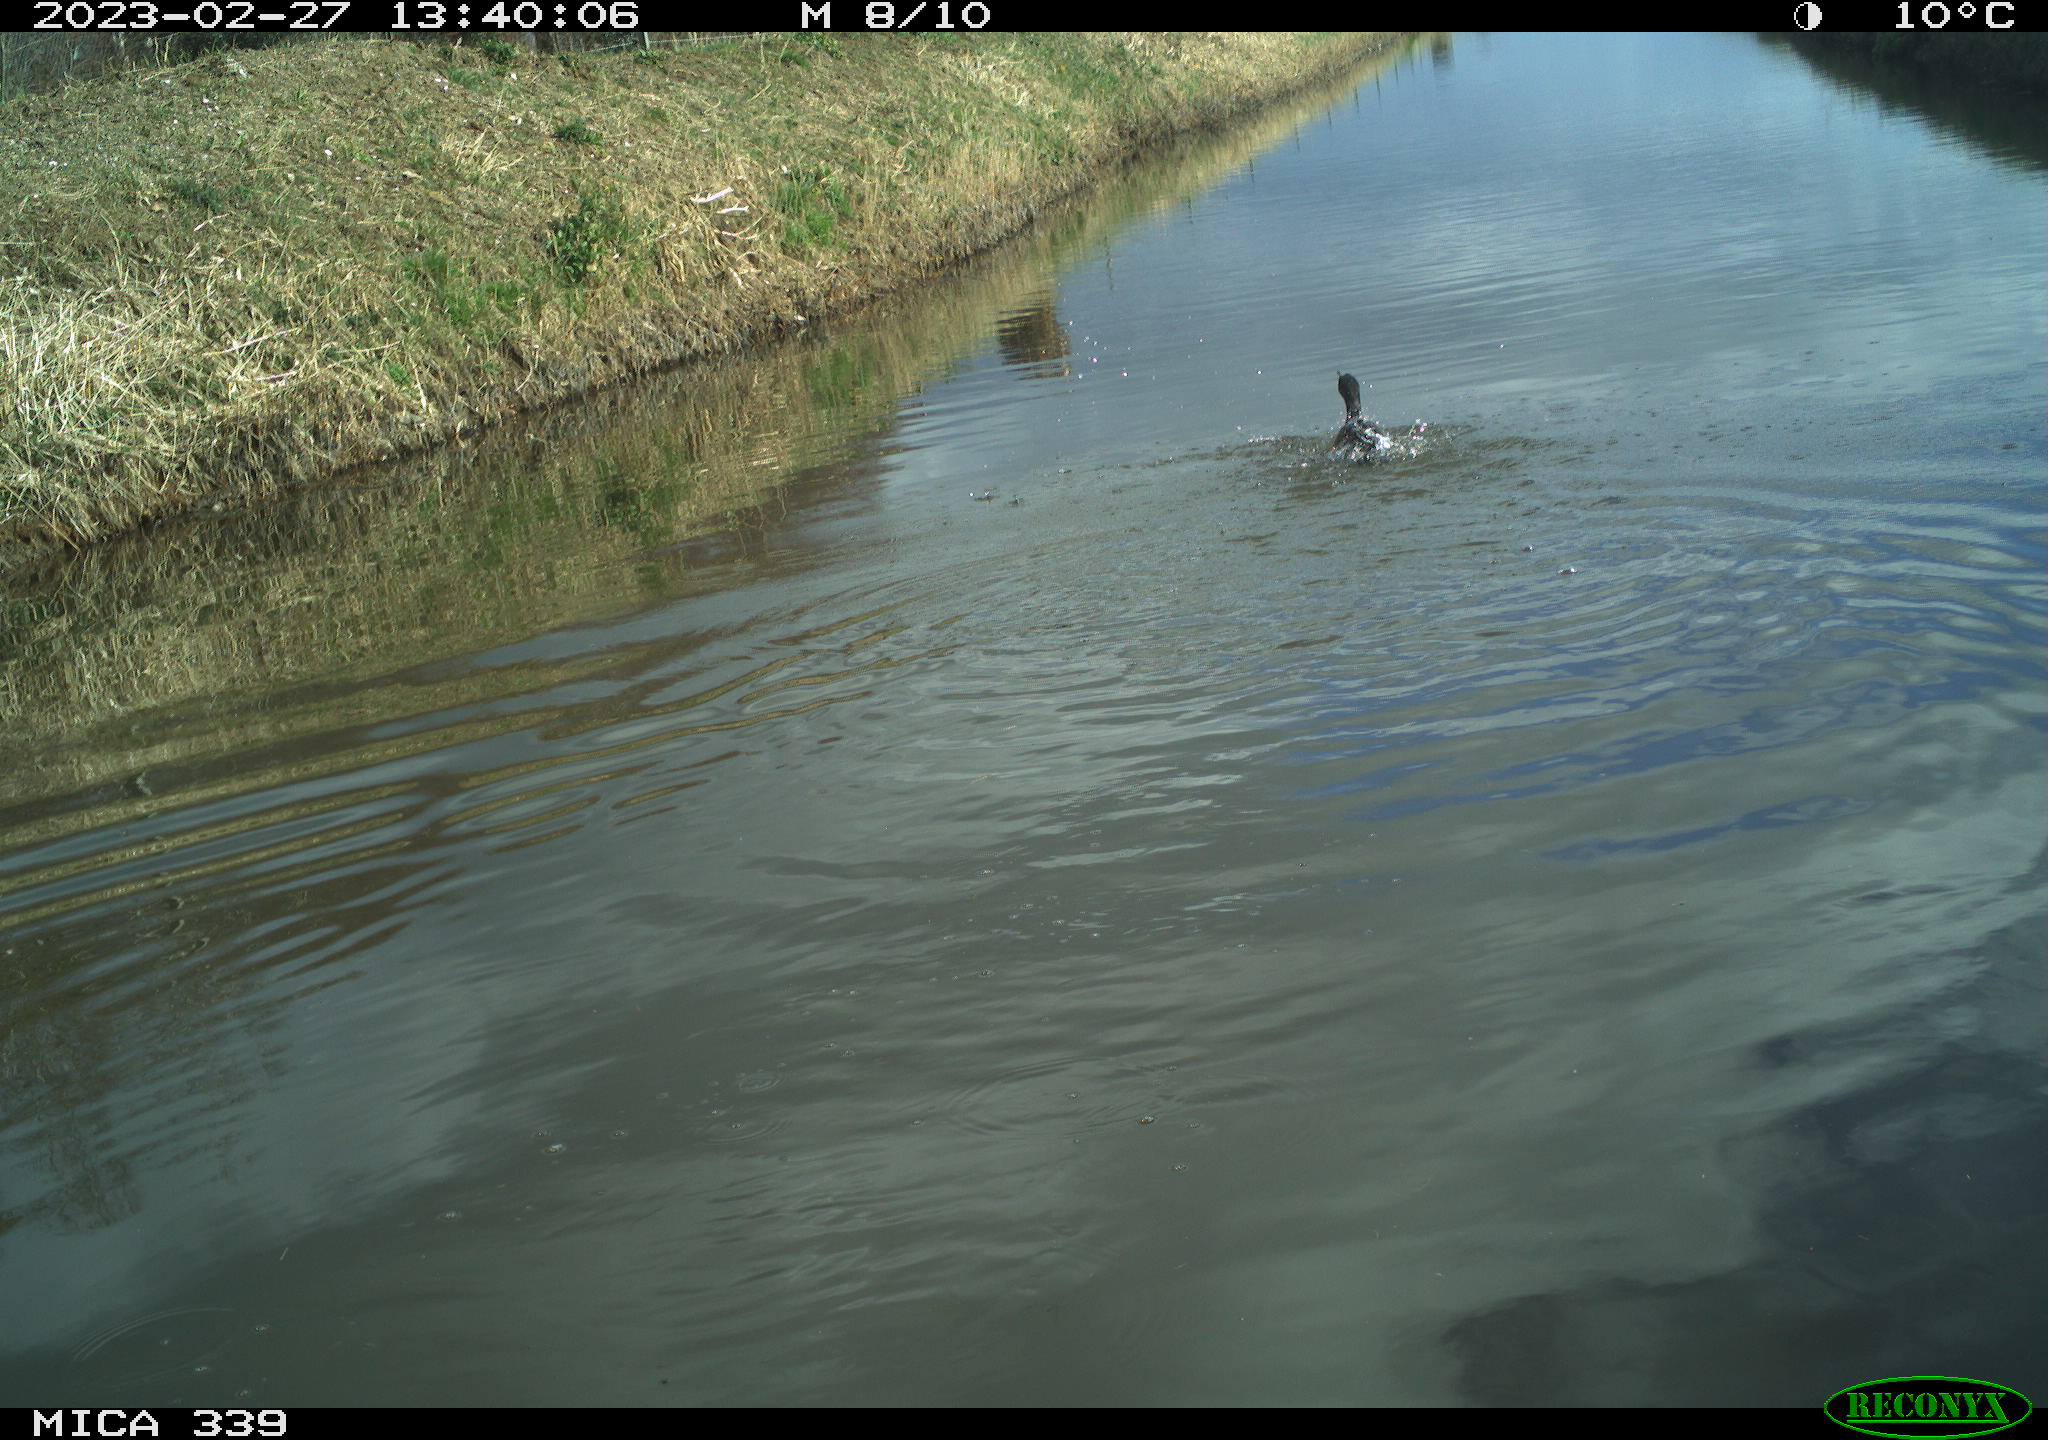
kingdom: Animalia
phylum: Chordata
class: Aves
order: Suliformes
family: Phalacrocoracidae
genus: Phalacrocorax
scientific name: Phalacrocorax carbo
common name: Great cormorant
